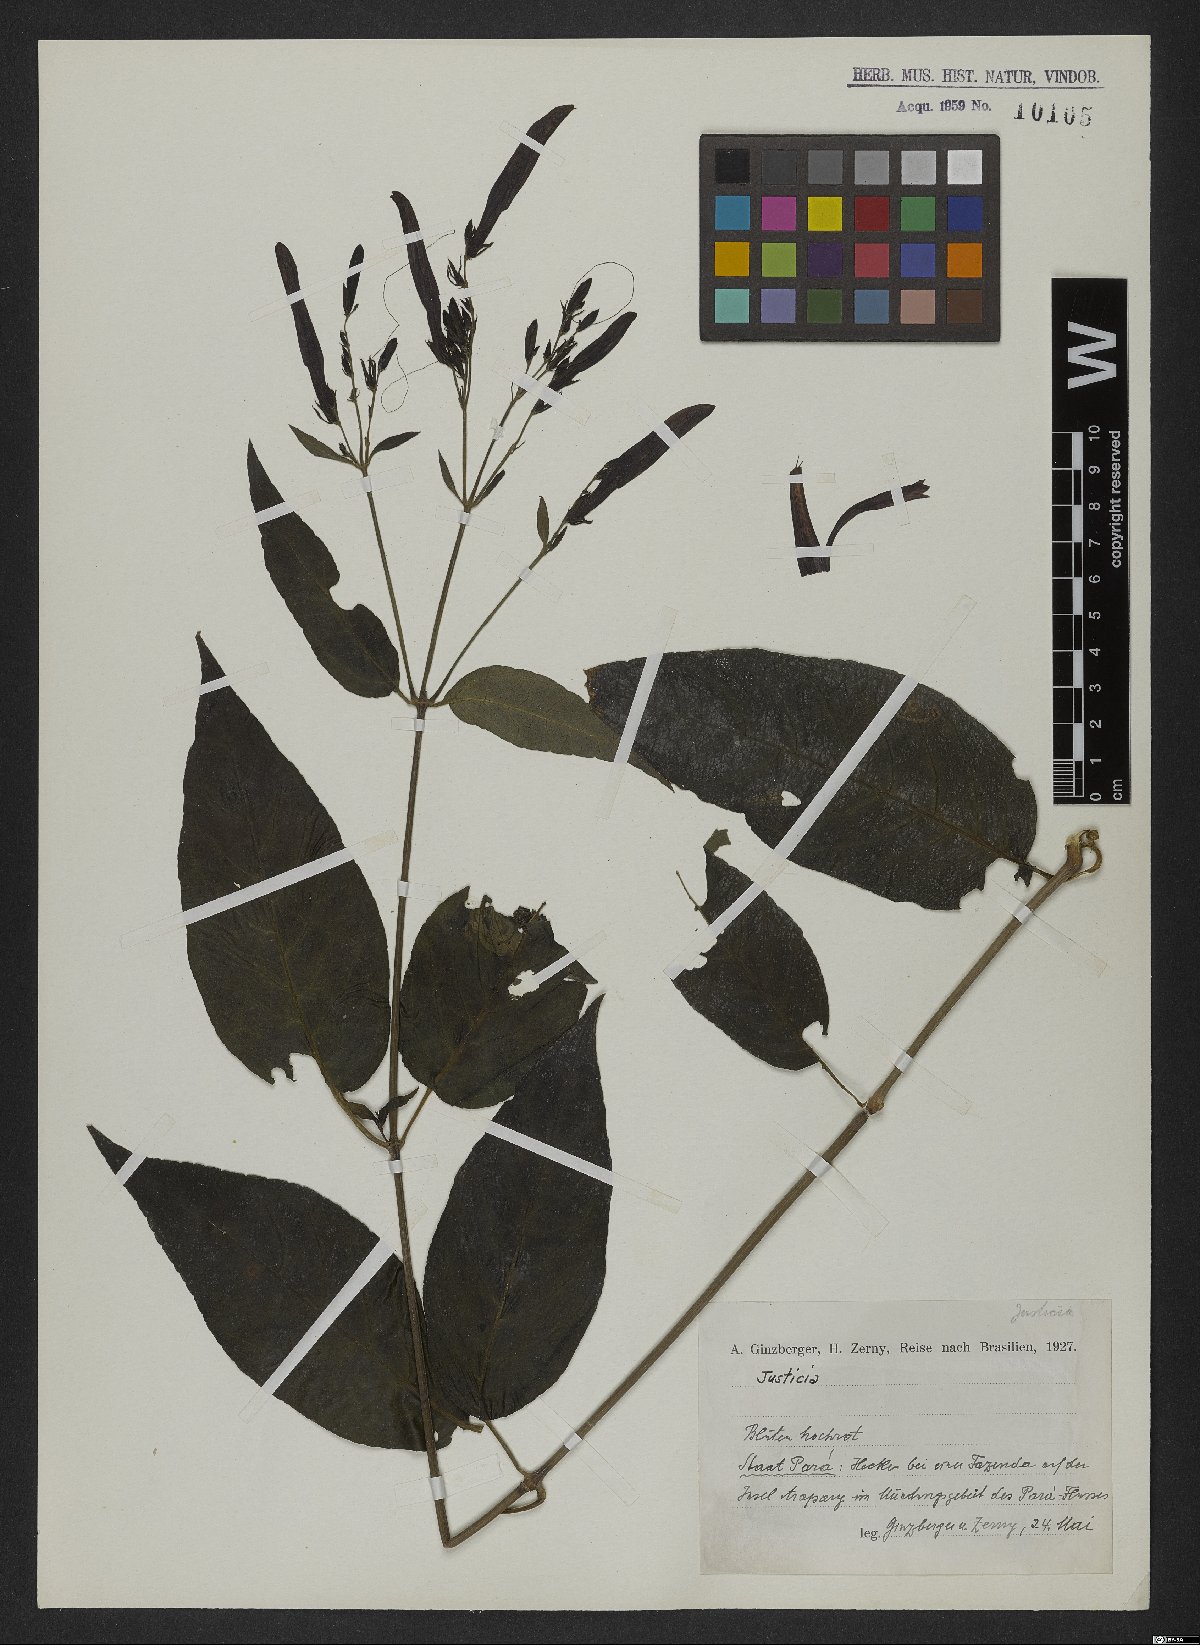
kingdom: Plantae
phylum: Tracheophyta
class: Magnoliopsida
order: Lamiales
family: Acanthaceae
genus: Justicia
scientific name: Justicia
